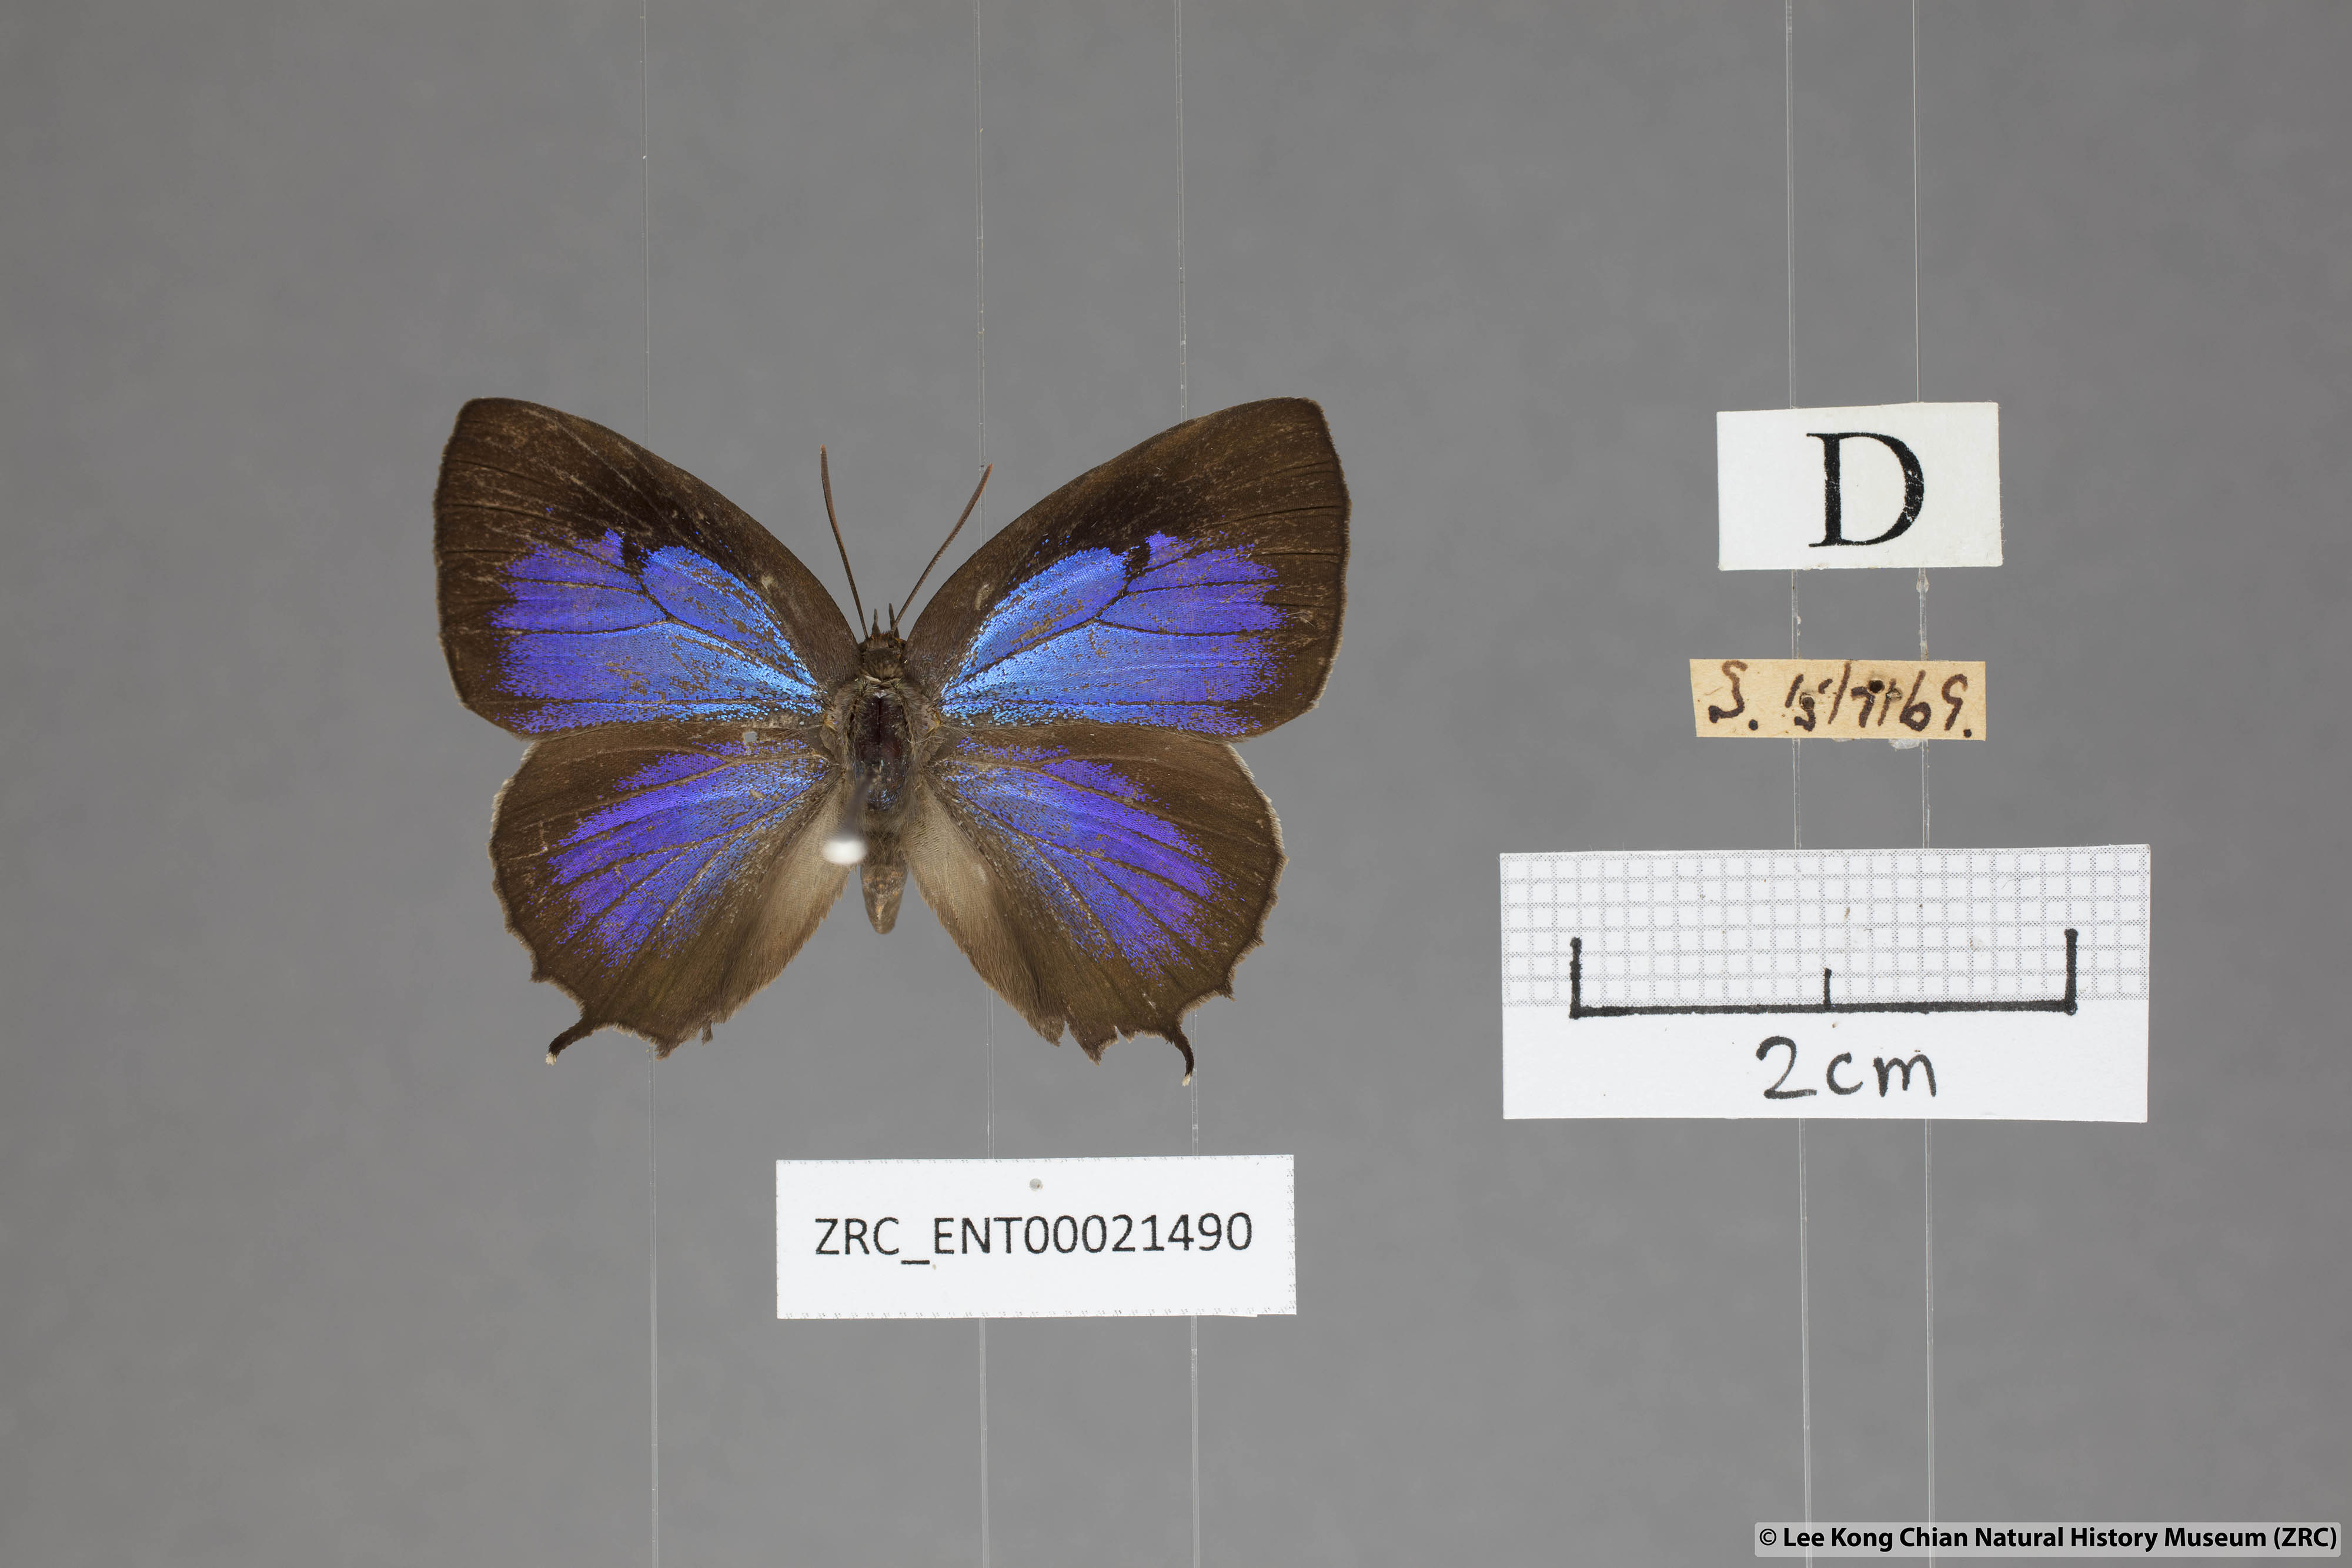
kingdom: Animalia
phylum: Arthropoda
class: Insecta
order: Lepidoptera
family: Lycaenidae
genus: Flos
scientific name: Flos
